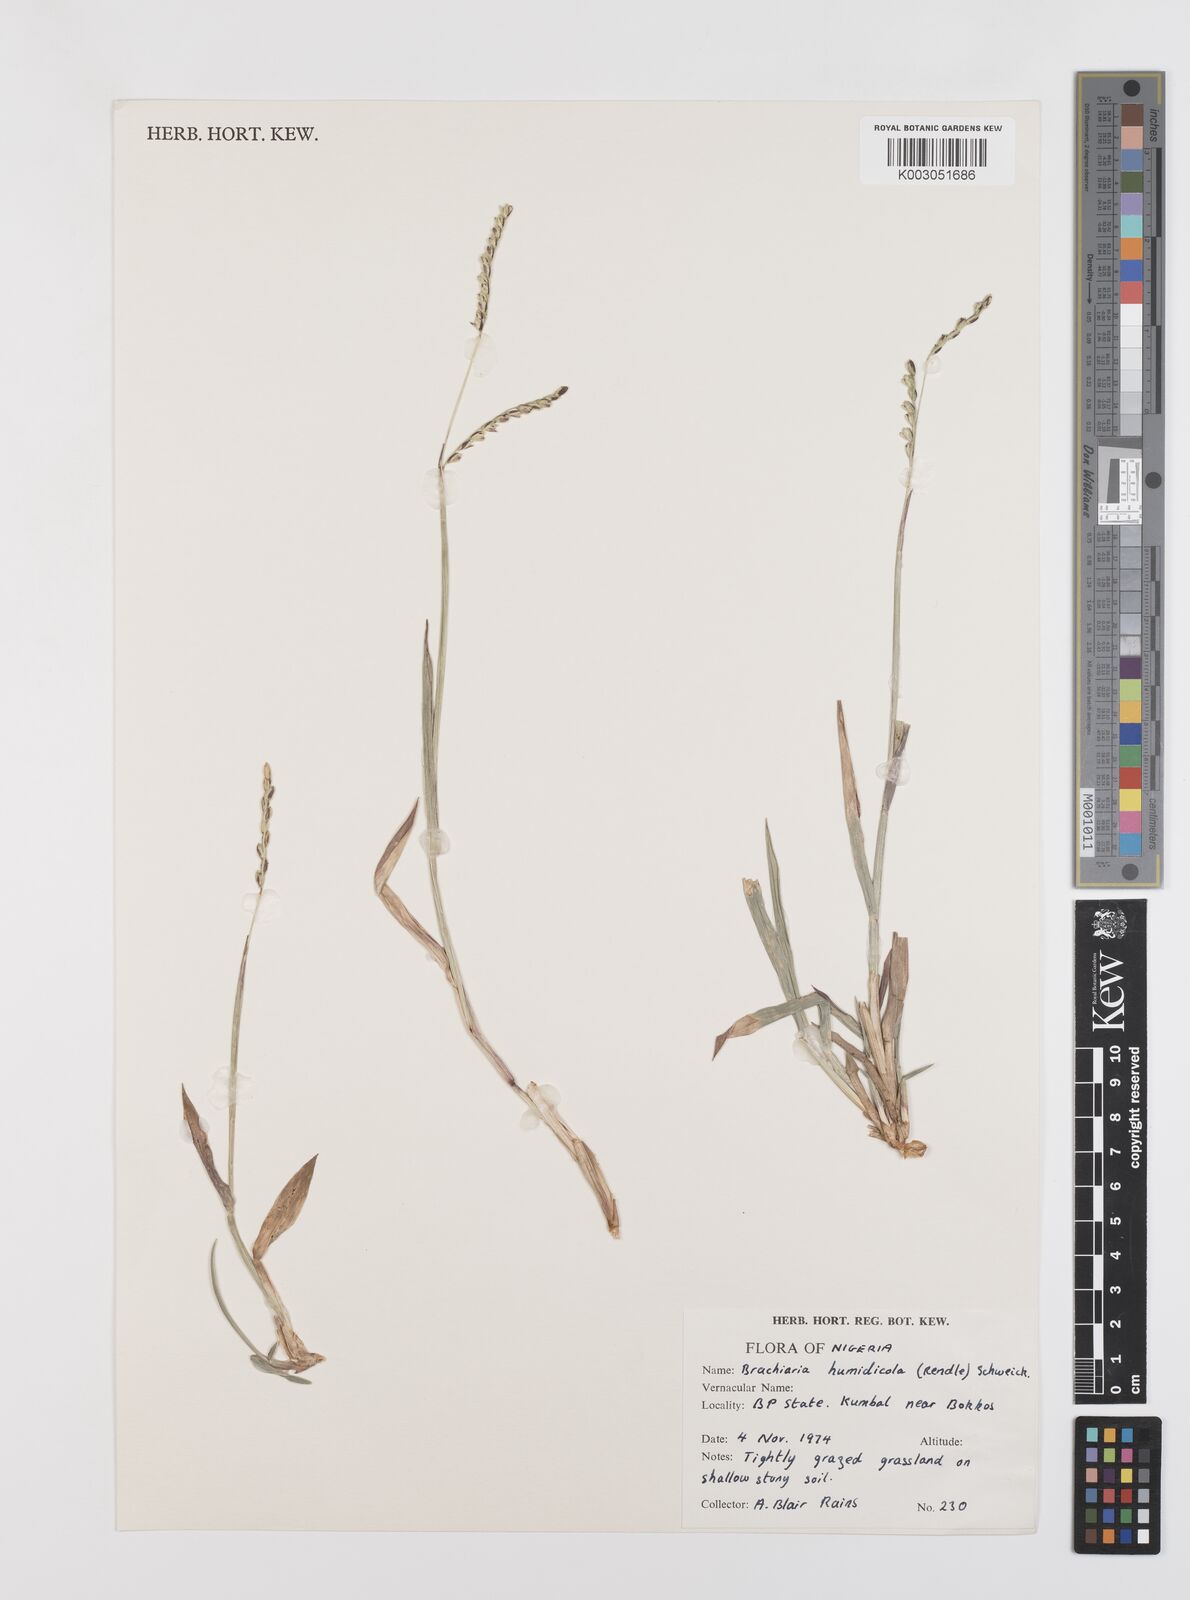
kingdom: Plantae
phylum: Tracheophyta
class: Liliopsida
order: Poales
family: Poaceae
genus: Urochloa
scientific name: Urochloa dictyoneura
